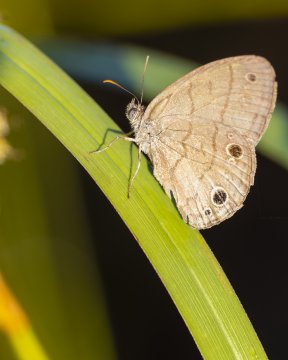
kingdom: Animalia
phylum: Arthropoda
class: Insecta
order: Lepidoptera
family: Nymphalidae
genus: Hermeuptychia
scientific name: Hermeuptychia hermes
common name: Carolina Satyr
